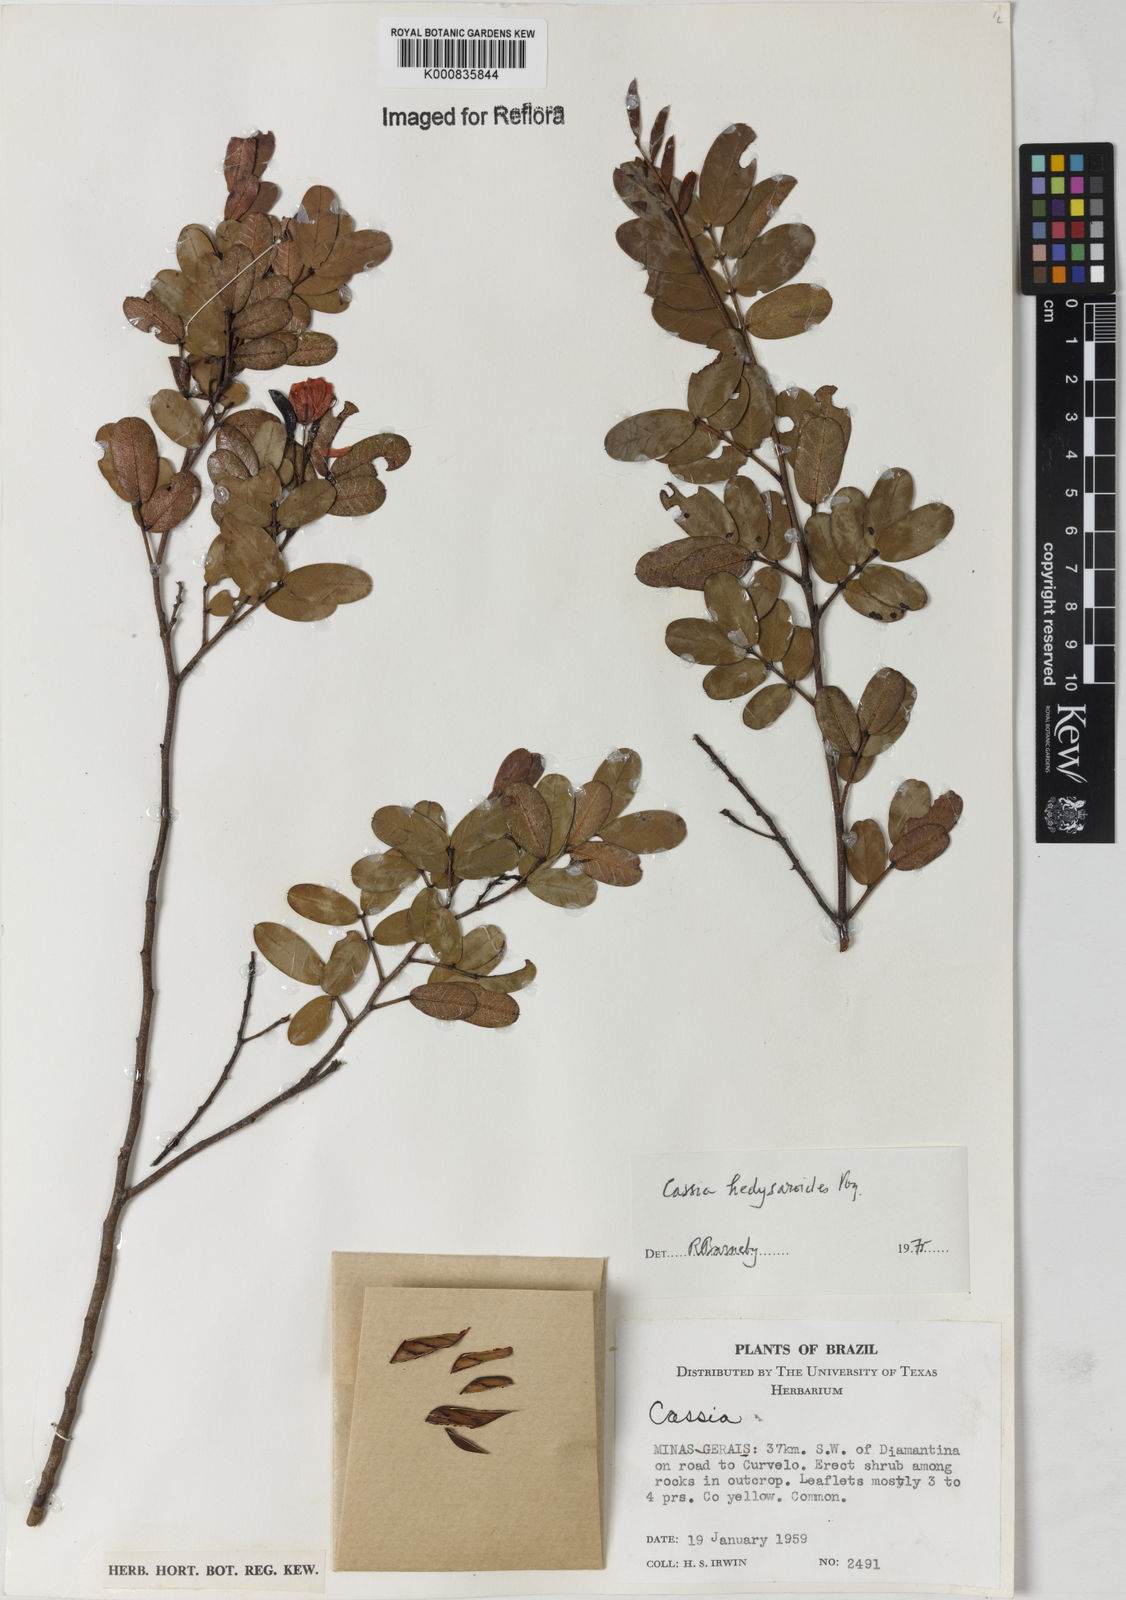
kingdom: Plantae
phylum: Tracheophyta
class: Magnoliopsida
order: Fabales
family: Fabaceae
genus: Chamaecrista
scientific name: Chamaecrista hedysaroides
